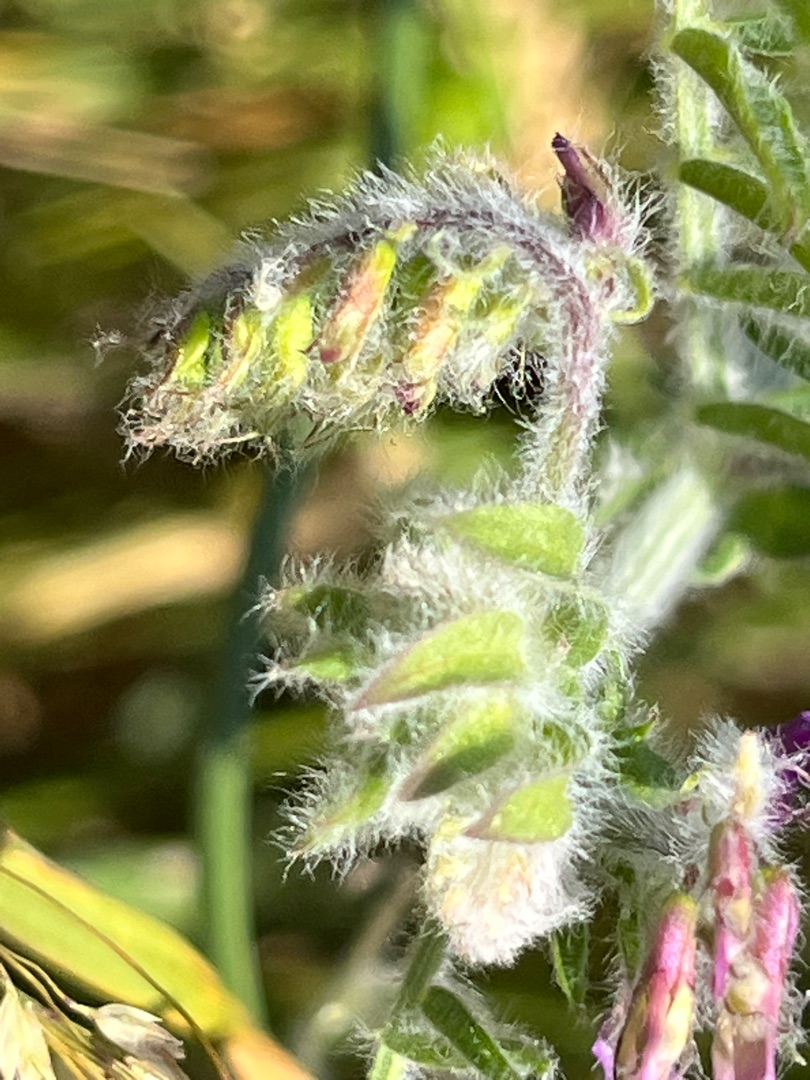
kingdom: Plantae
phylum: Tracheophyta
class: Magnoliopsida
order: Fabales
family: Fabaceae
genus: Vicia
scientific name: Vicia villosa
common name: Sand-vikke (underart)
